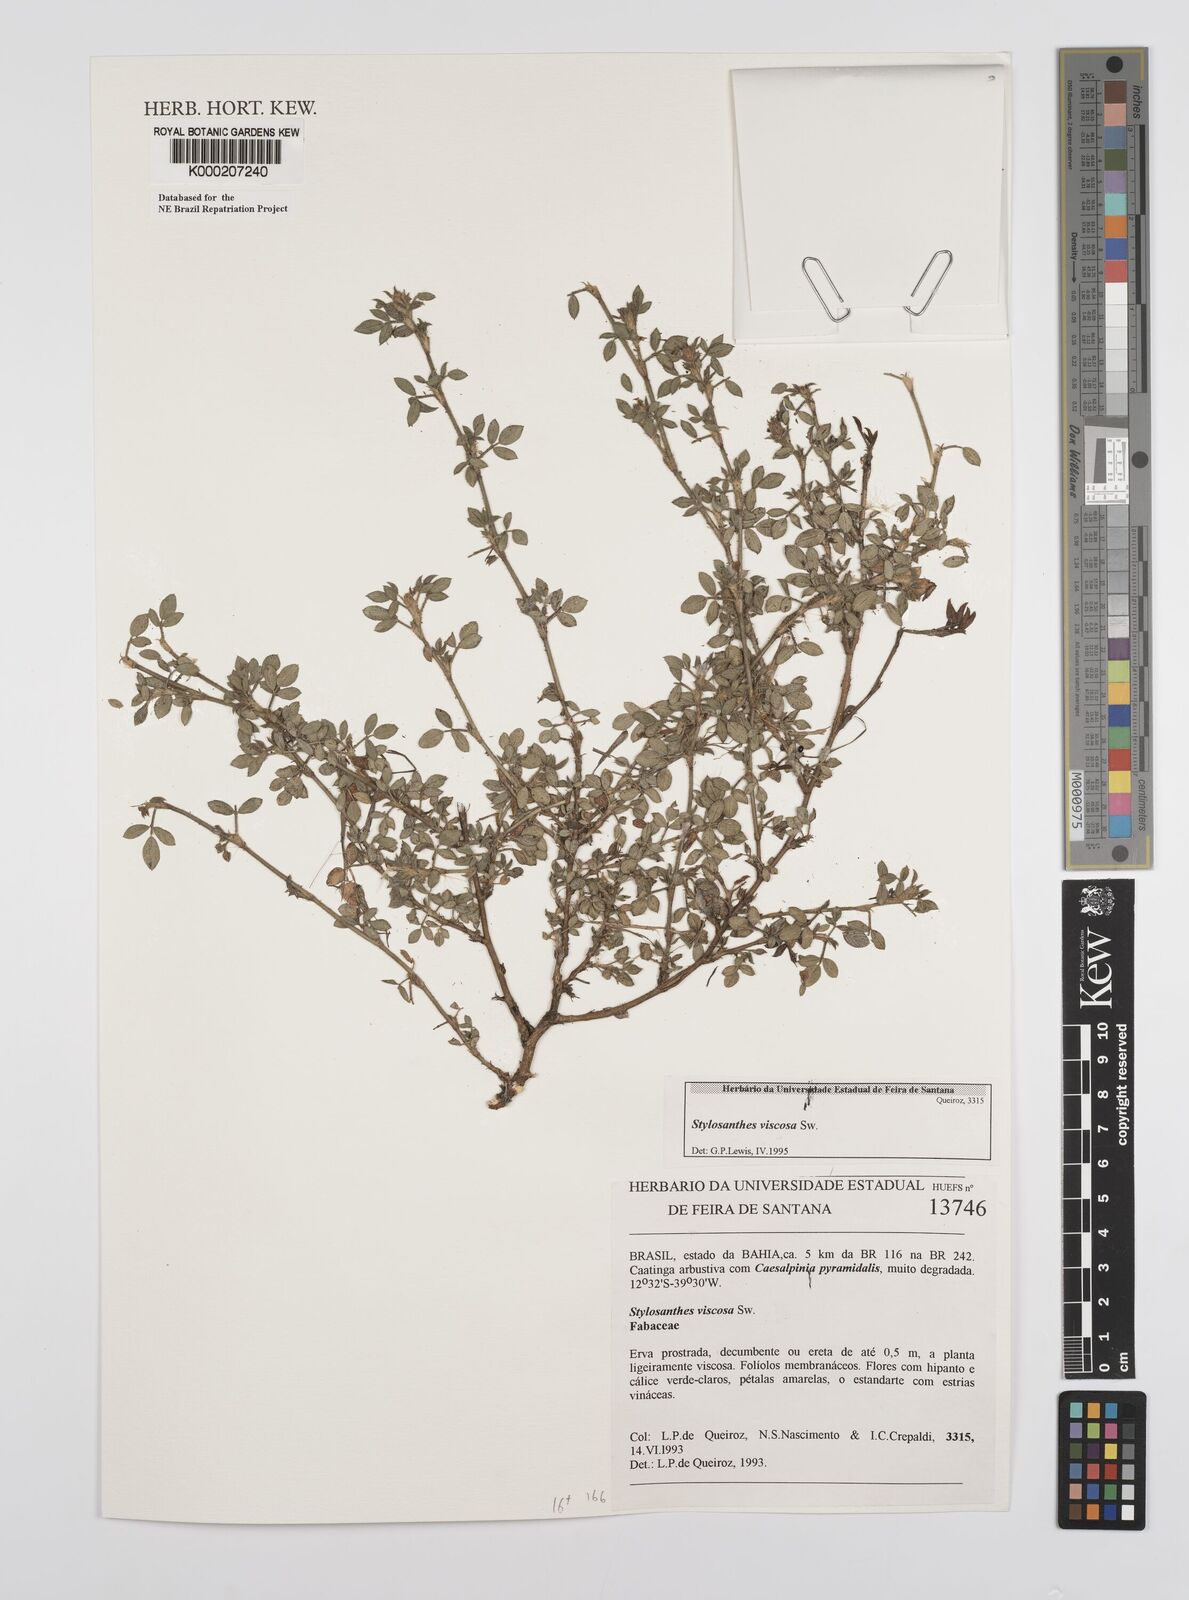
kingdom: Plantae
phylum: Tracheophyta
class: Magnoliopsida
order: Fabales
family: Fabaceae
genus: Stylosanthes
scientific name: Stylosanthes viscosa
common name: Viscid pencil-flower
